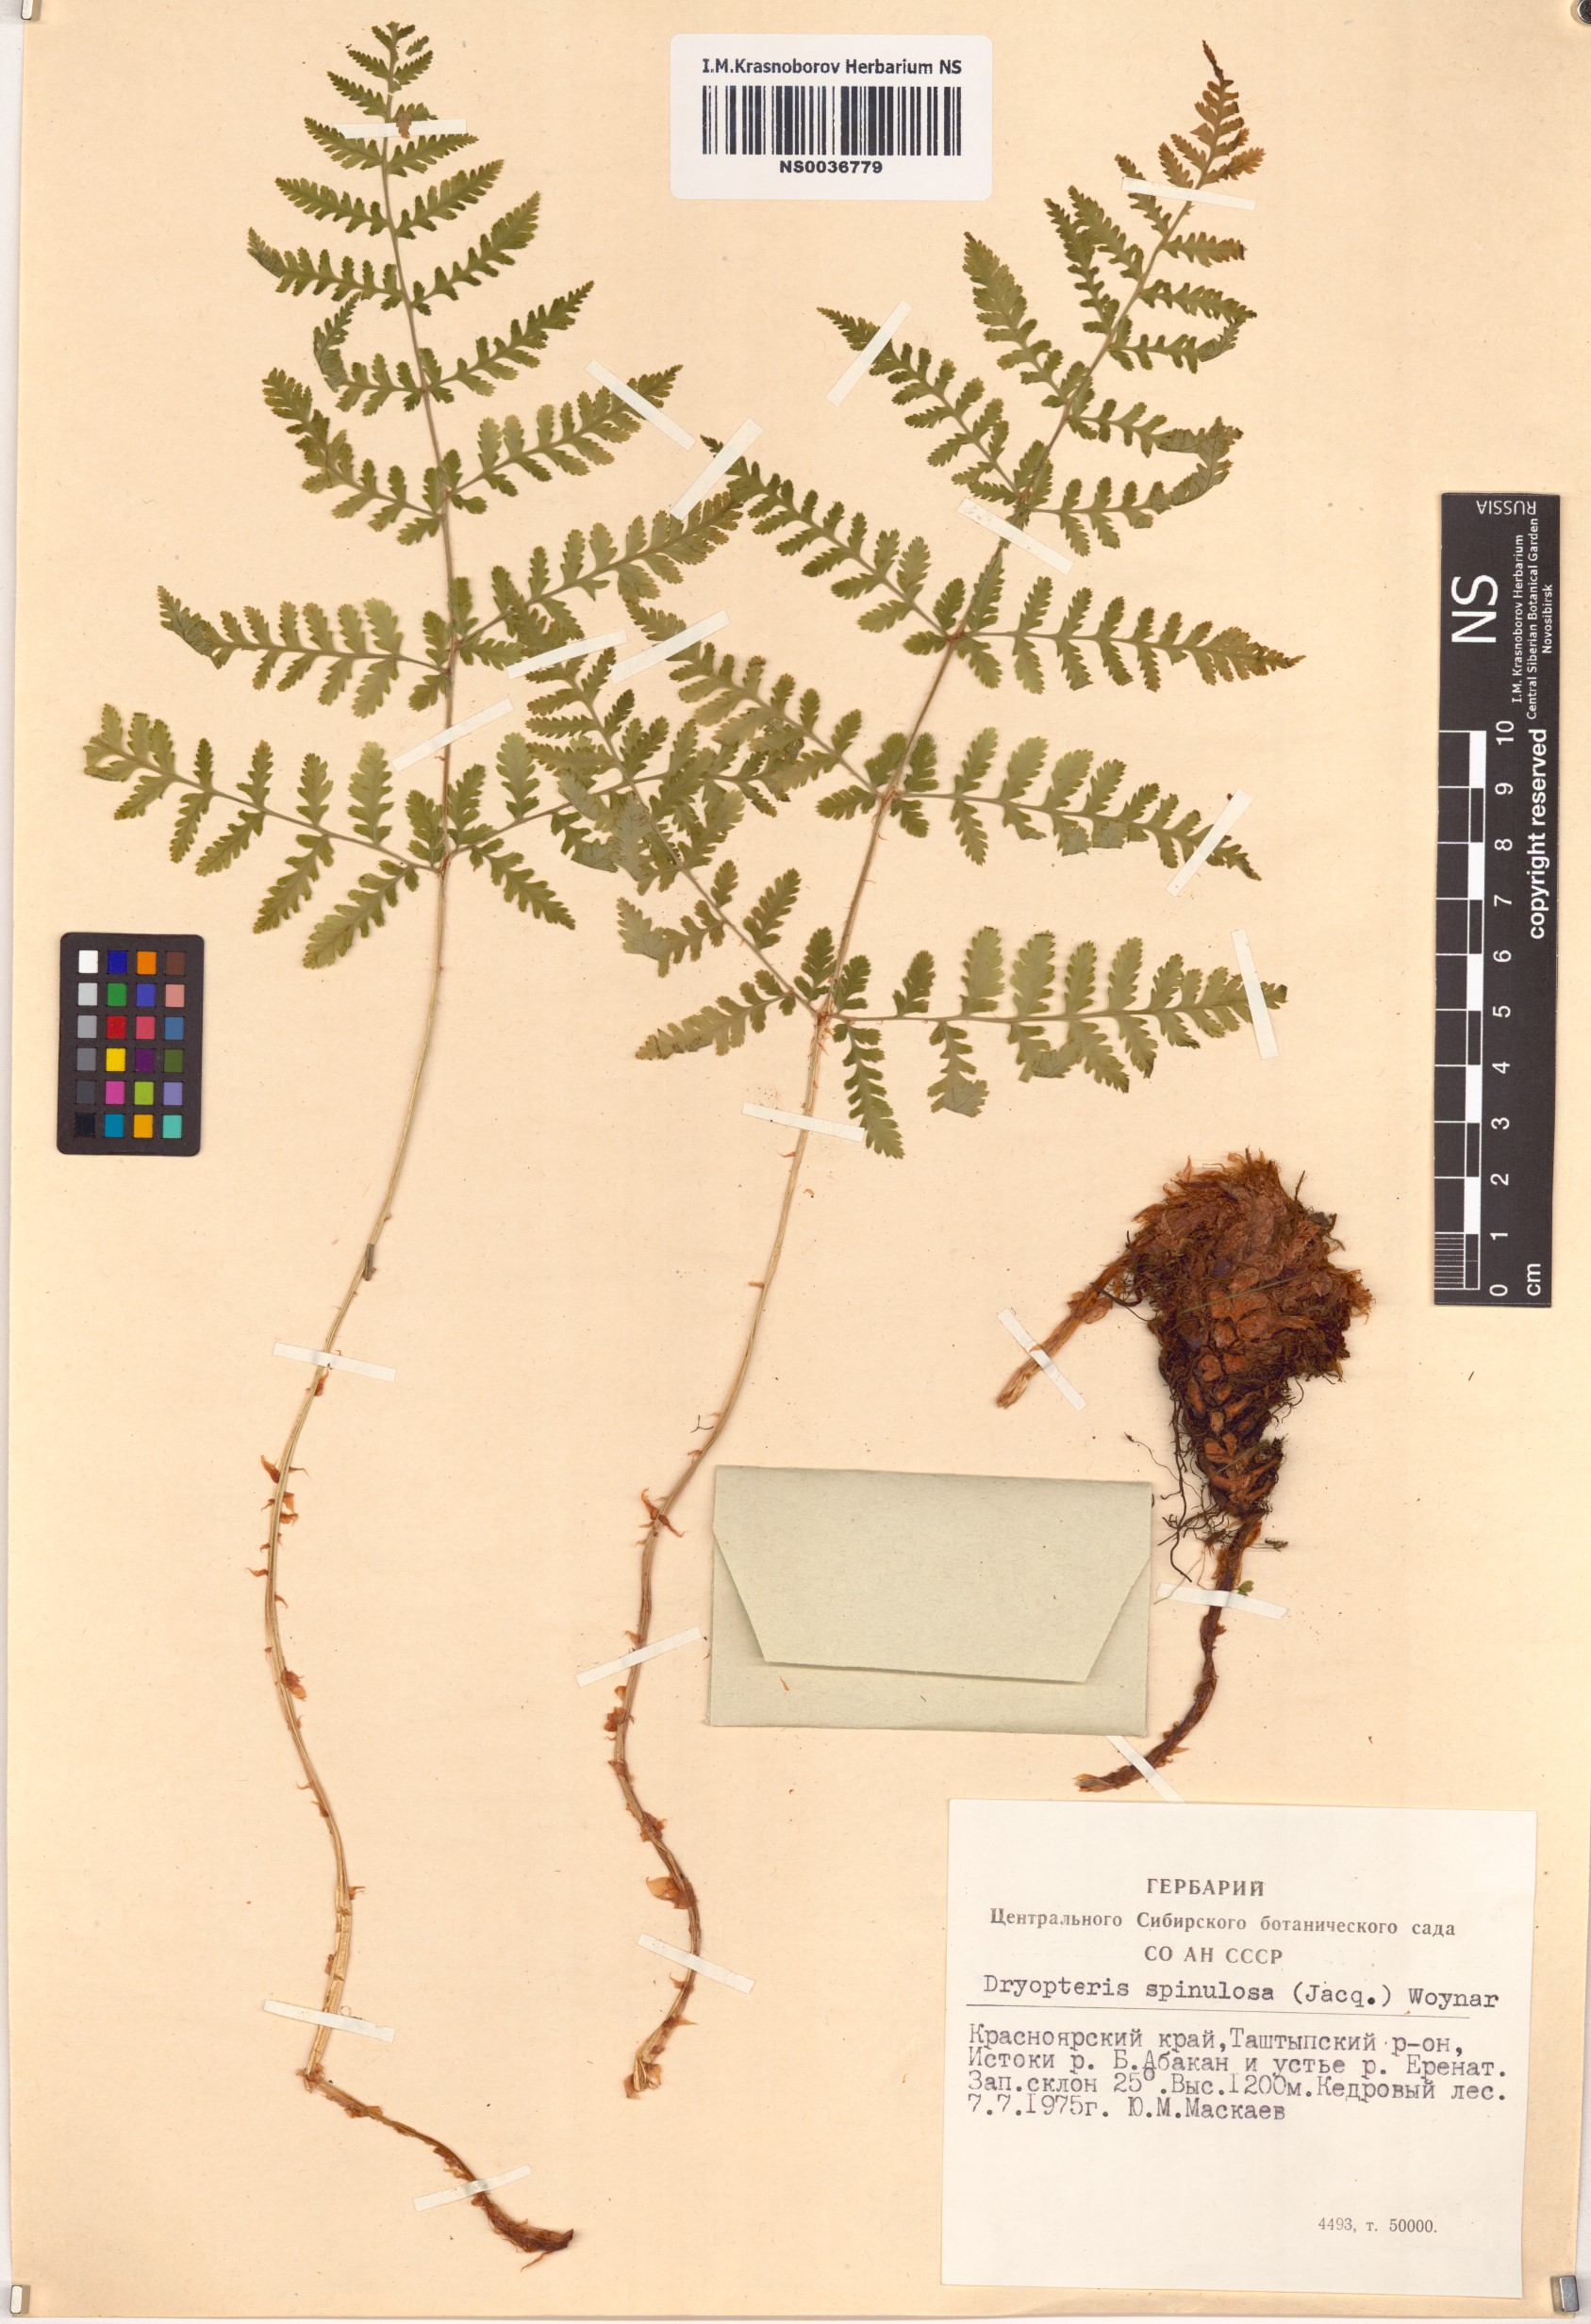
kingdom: Plantae
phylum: Tracheophyta
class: Polypodiopsida
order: Polypodiales
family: Dryopteridaceae
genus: Dryopteris
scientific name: Dryopteris carthusiana
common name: Narrow buckler-fern
